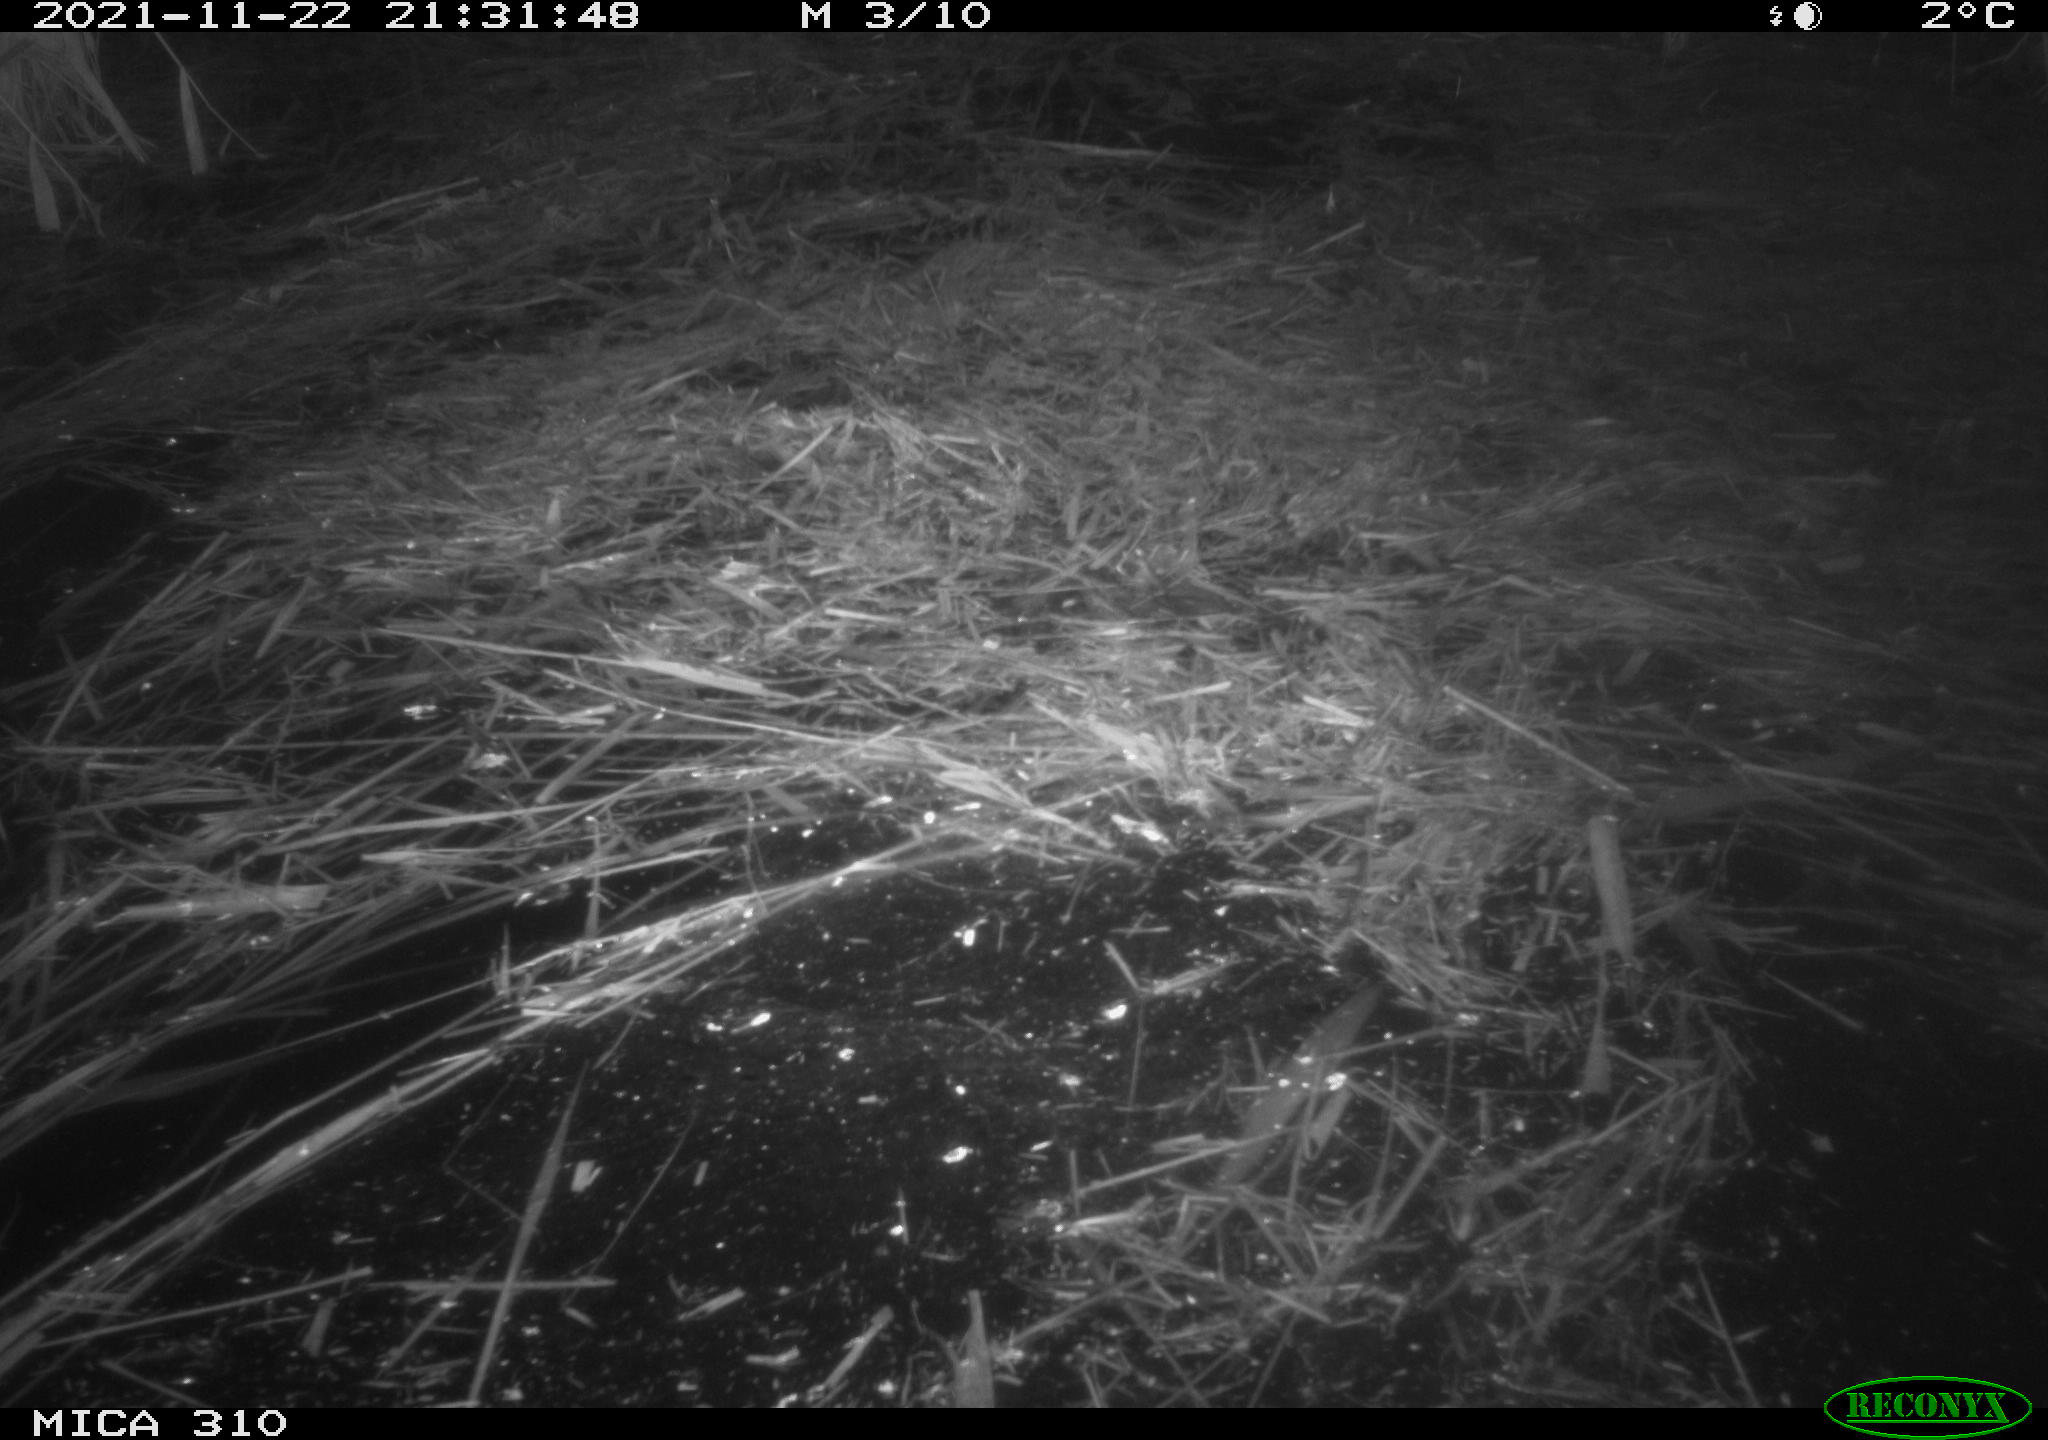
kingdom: Animalia
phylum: Chordata
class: Mammalia
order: Rodentia
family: Muridae
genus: Rattus
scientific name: Rattus norvegicus
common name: Brown rat
